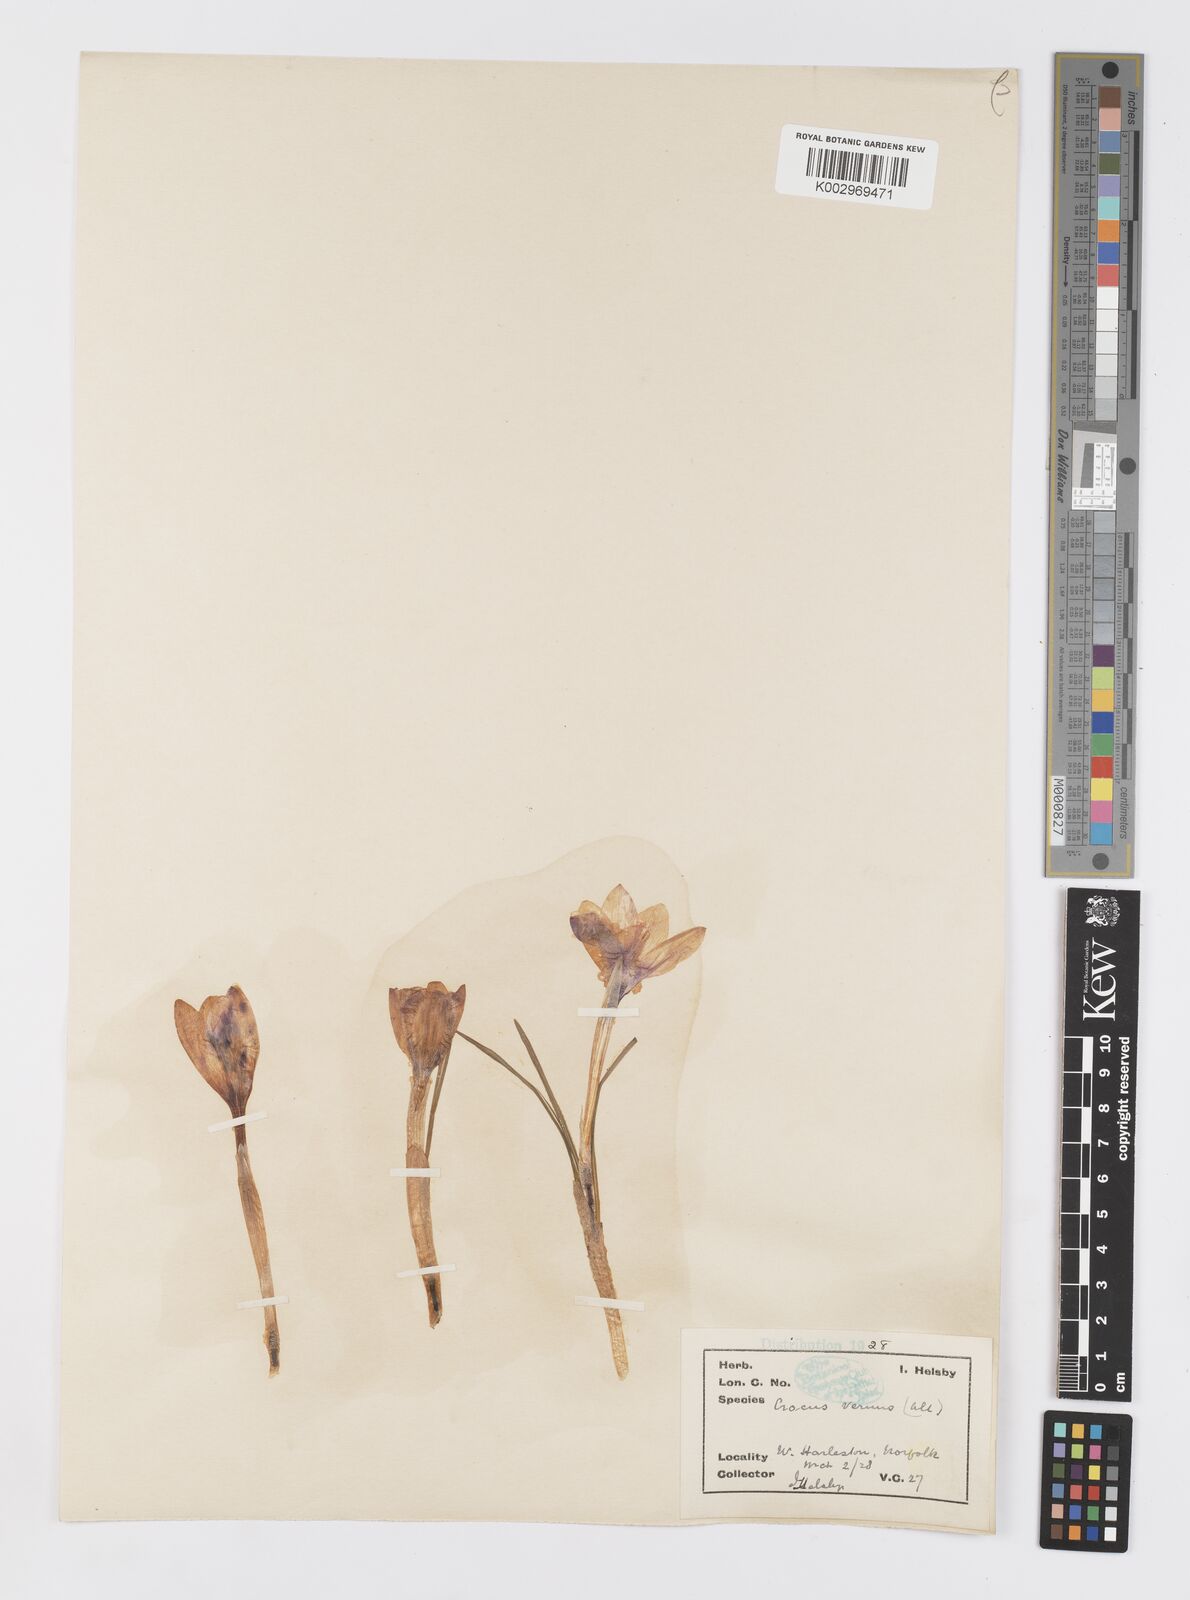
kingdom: Plantae
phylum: Tracheophyta
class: Liliopsida
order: Asparagales
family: Iridaceae
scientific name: Iridaceae
